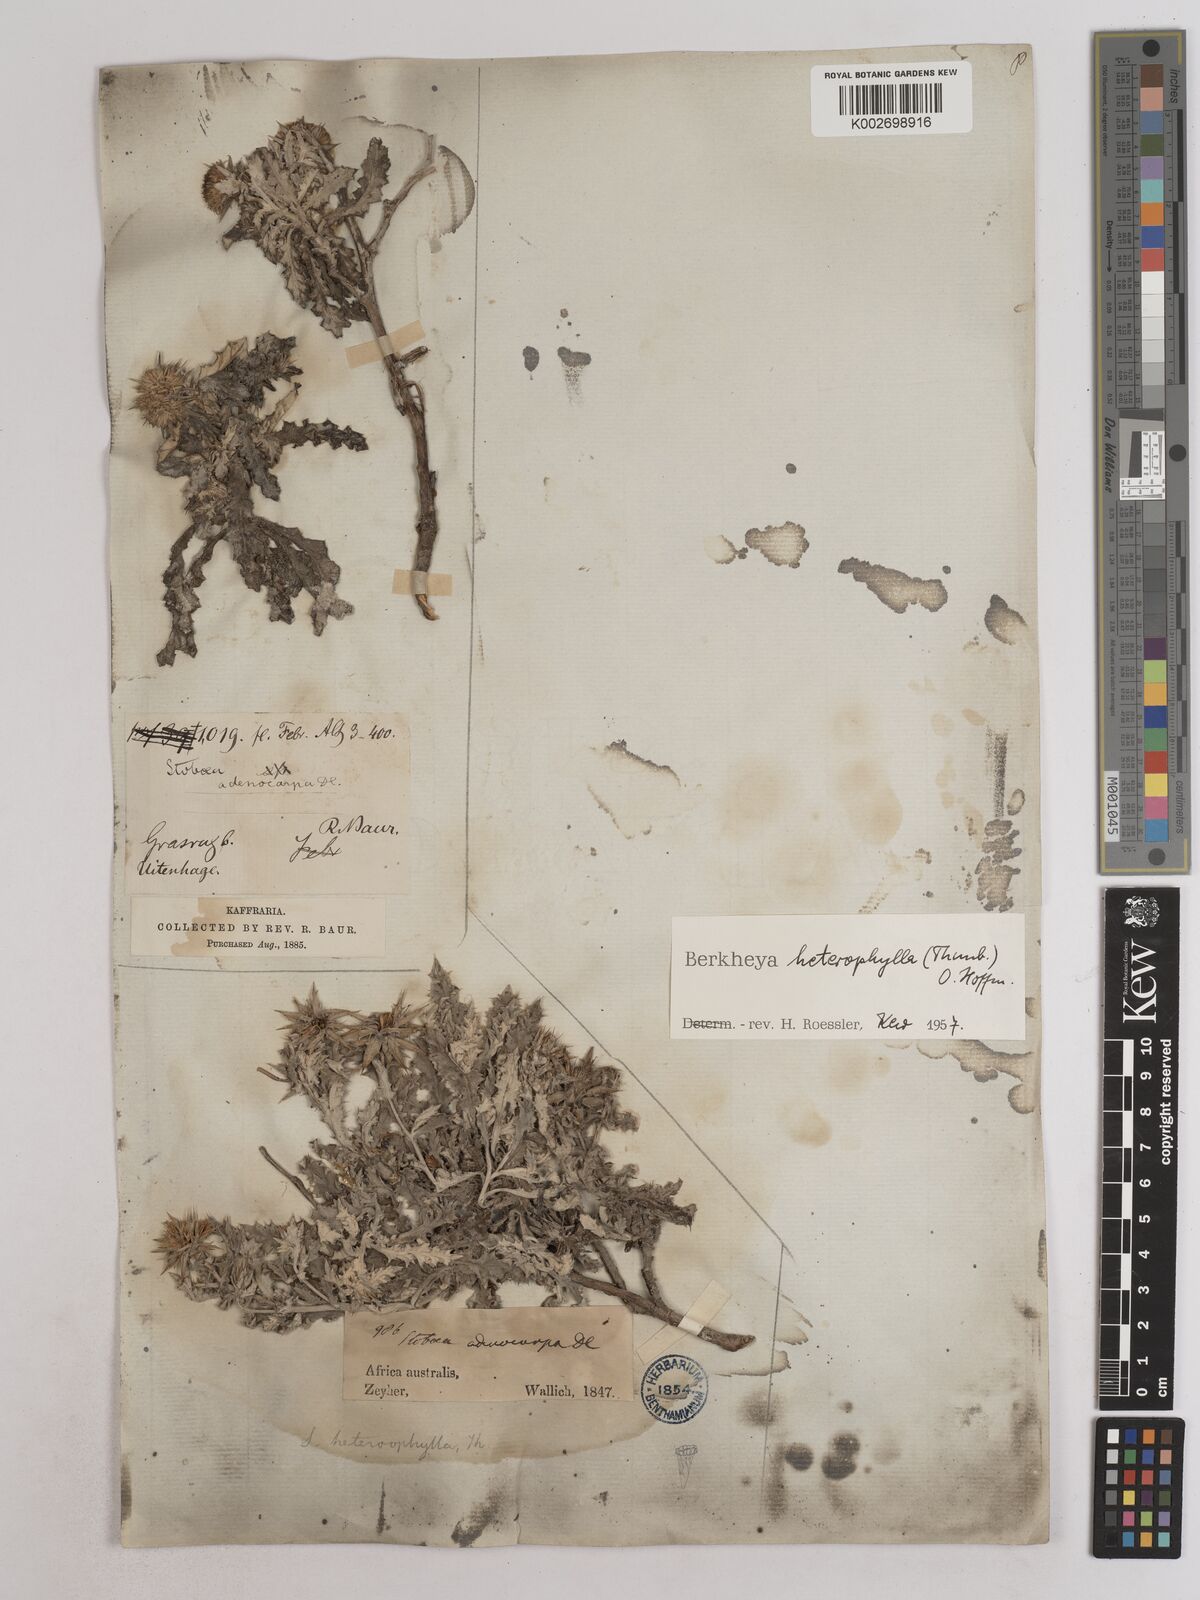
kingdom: Plantae
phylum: Tracheophyta
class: Magnoliopsida
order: Asterales
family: Asteraceae
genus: Berkheya
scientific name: Berkheya heterophylla
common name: Prickly gousblom
